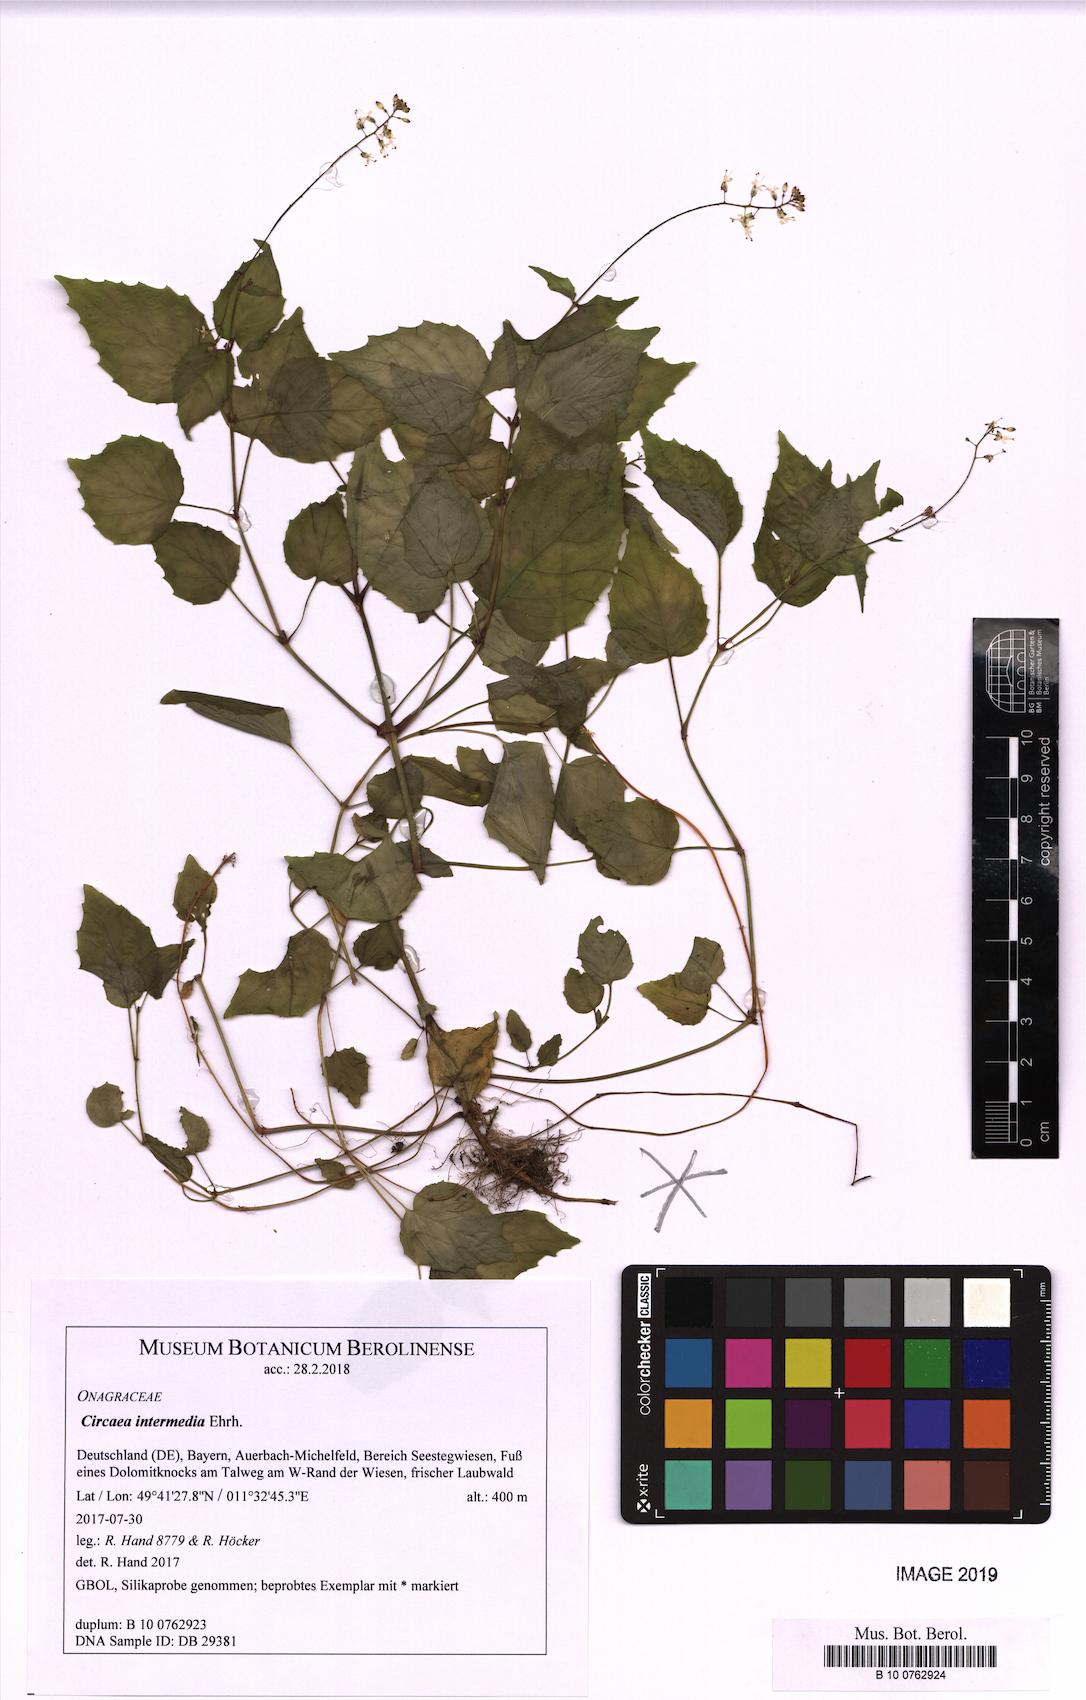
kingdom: Plantae
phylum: Tracheophyta
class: Magnoliopsida
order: Myrtales
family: Onagraceae
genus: Circaea
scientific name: Circaea intermedia
